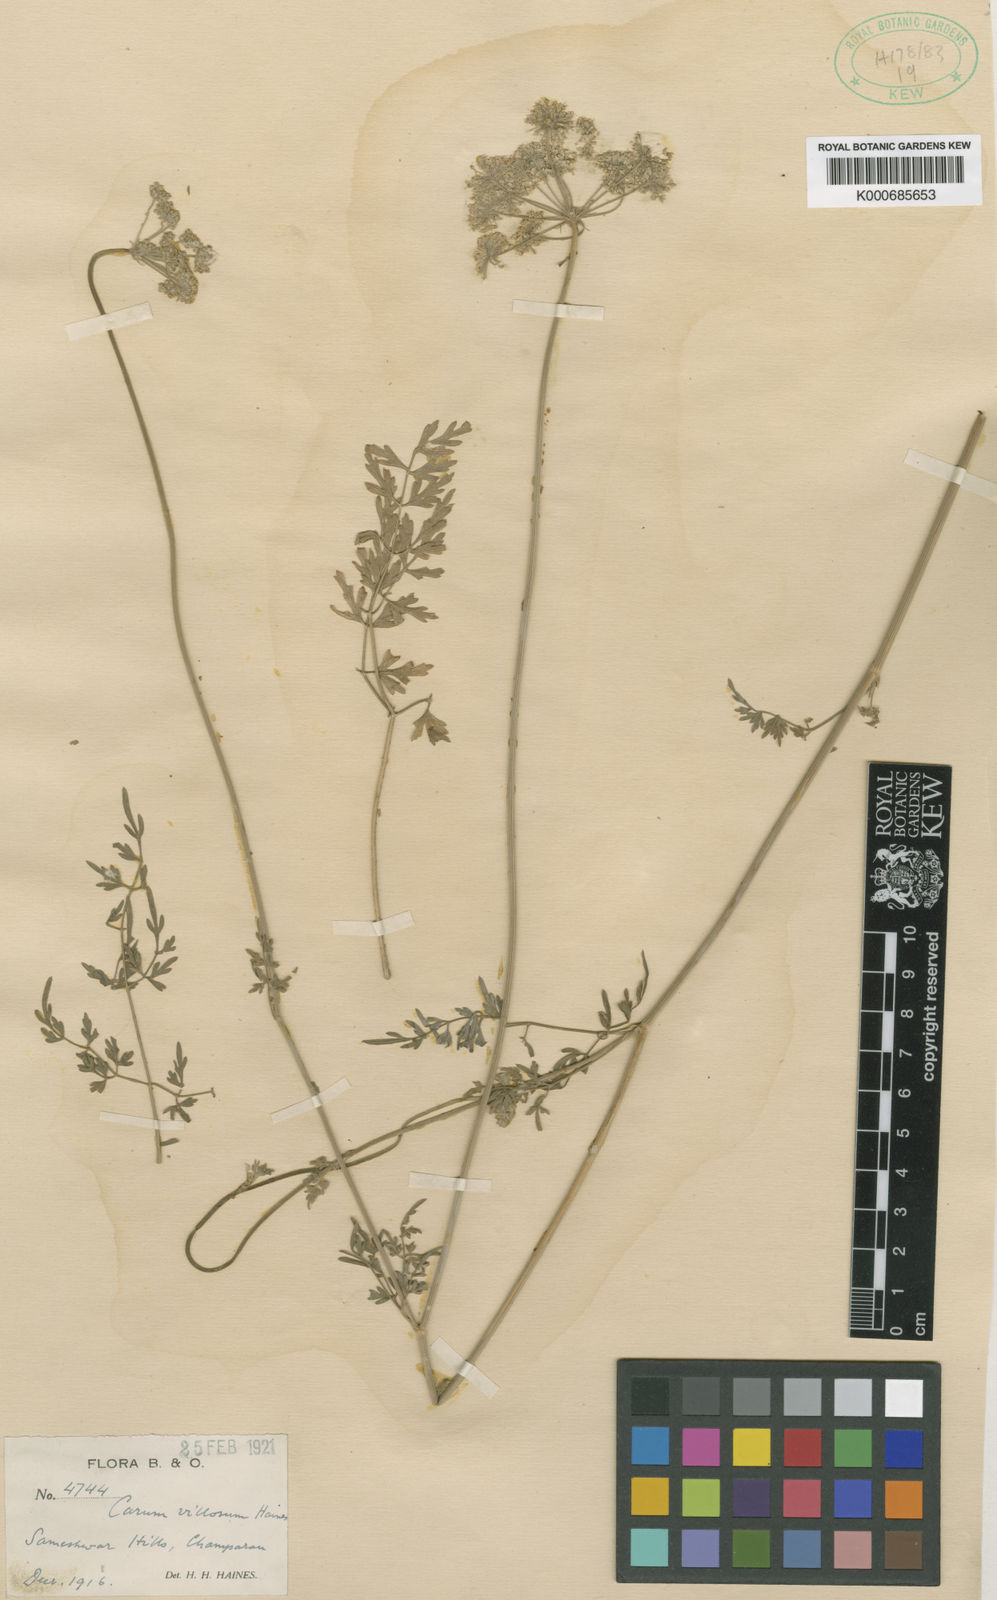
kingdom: Plantae
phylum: Tracheophyta
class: Magnoliopsida
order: Apiales
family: Apiaceae
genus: Trachyspermum
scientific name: Trachyspermum villosum
